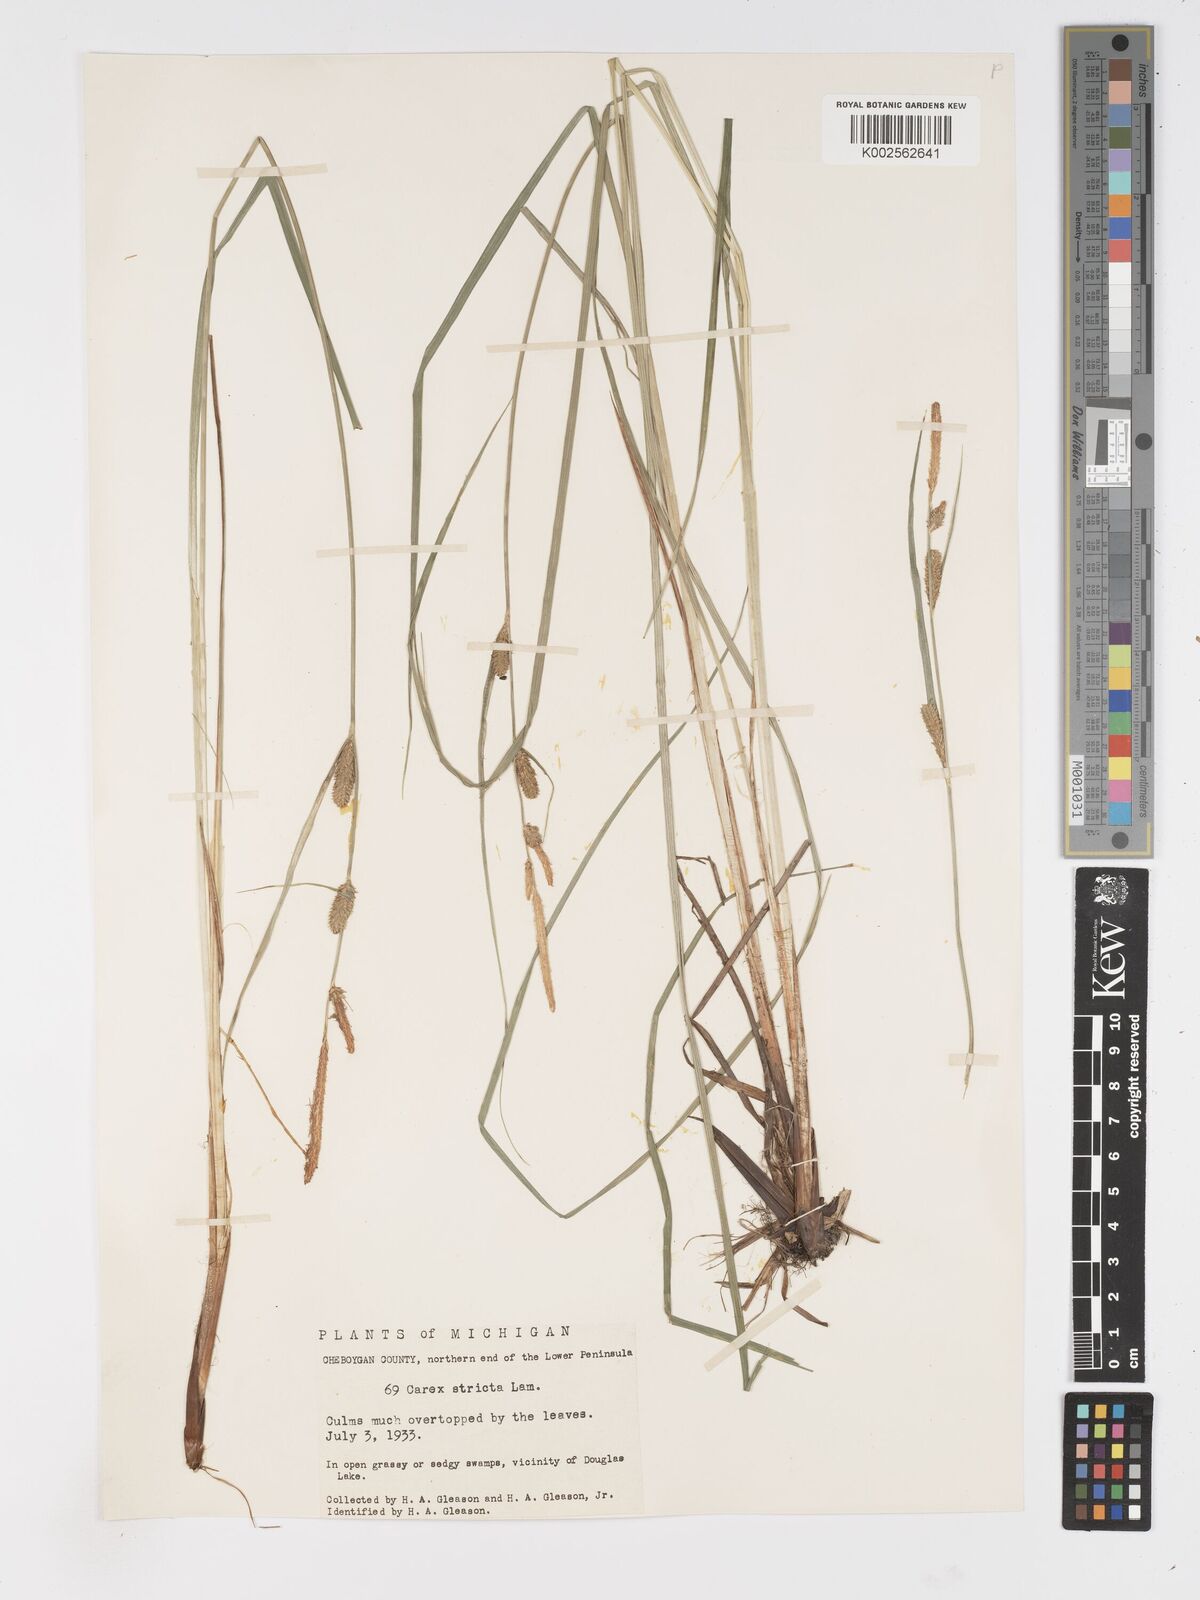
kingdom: Plantae
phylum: Tracheophyta
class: Liliopsida
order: Poales
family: Cyperaceae
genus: Carex
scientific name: Carex stricta
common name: Hummock sedge
